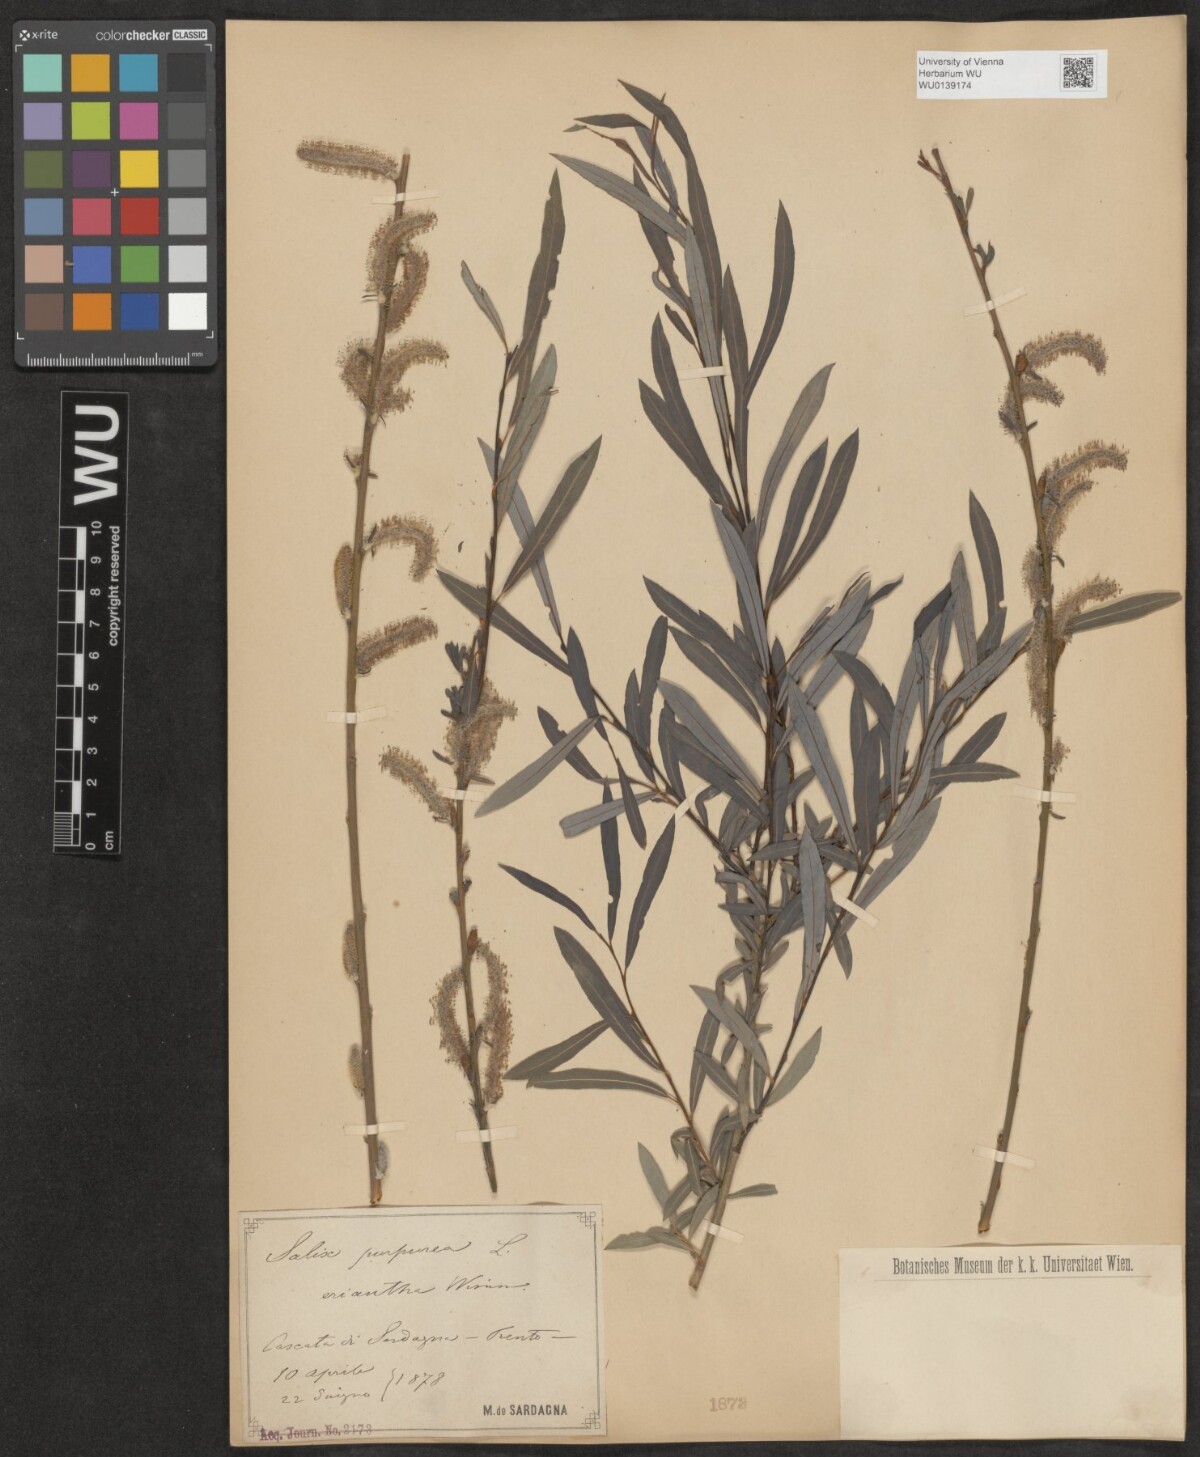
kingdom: Plantae
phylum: Tracheophyta
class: Magnoliopsida
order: Malpighiales
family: Salicaceae
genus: Salix
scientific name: Salix purpurea
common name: Purple willow
